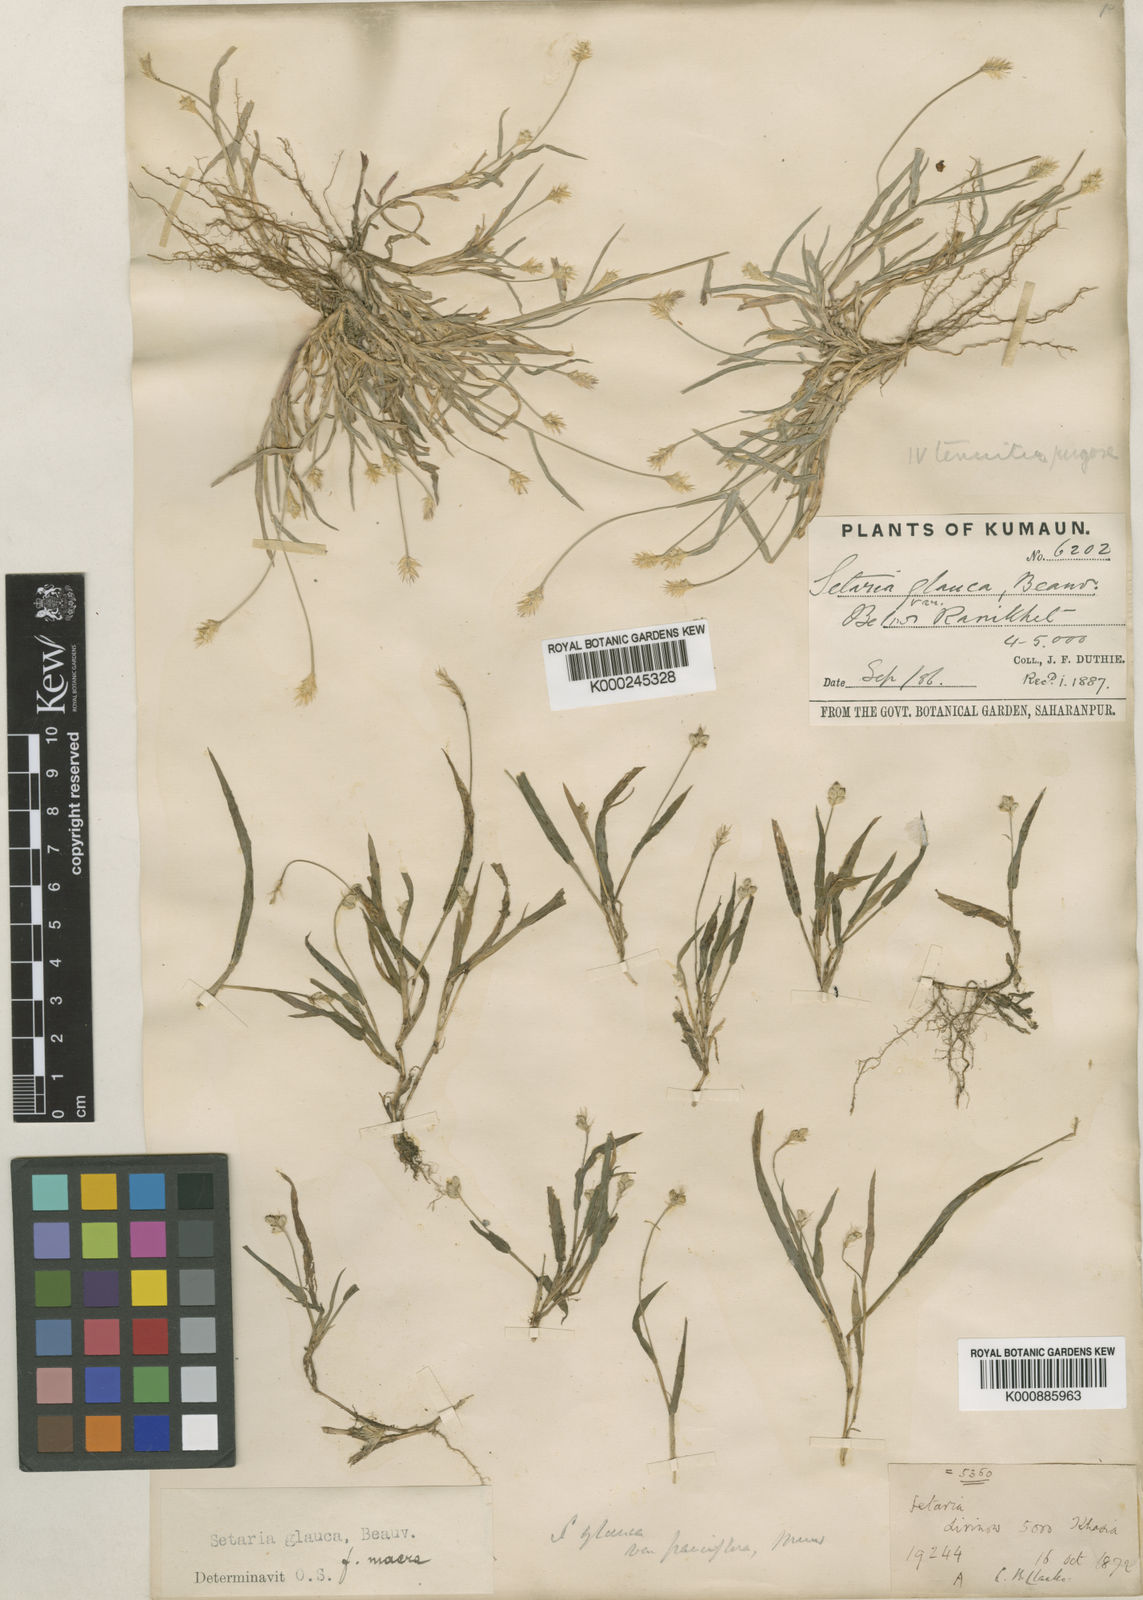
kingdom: Plantae
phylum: Tracheophyta
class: Liliopsida
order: Poales
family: Poaceae
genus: Setaria
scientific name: Setaria pumila
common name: Yellow bristle-grass
